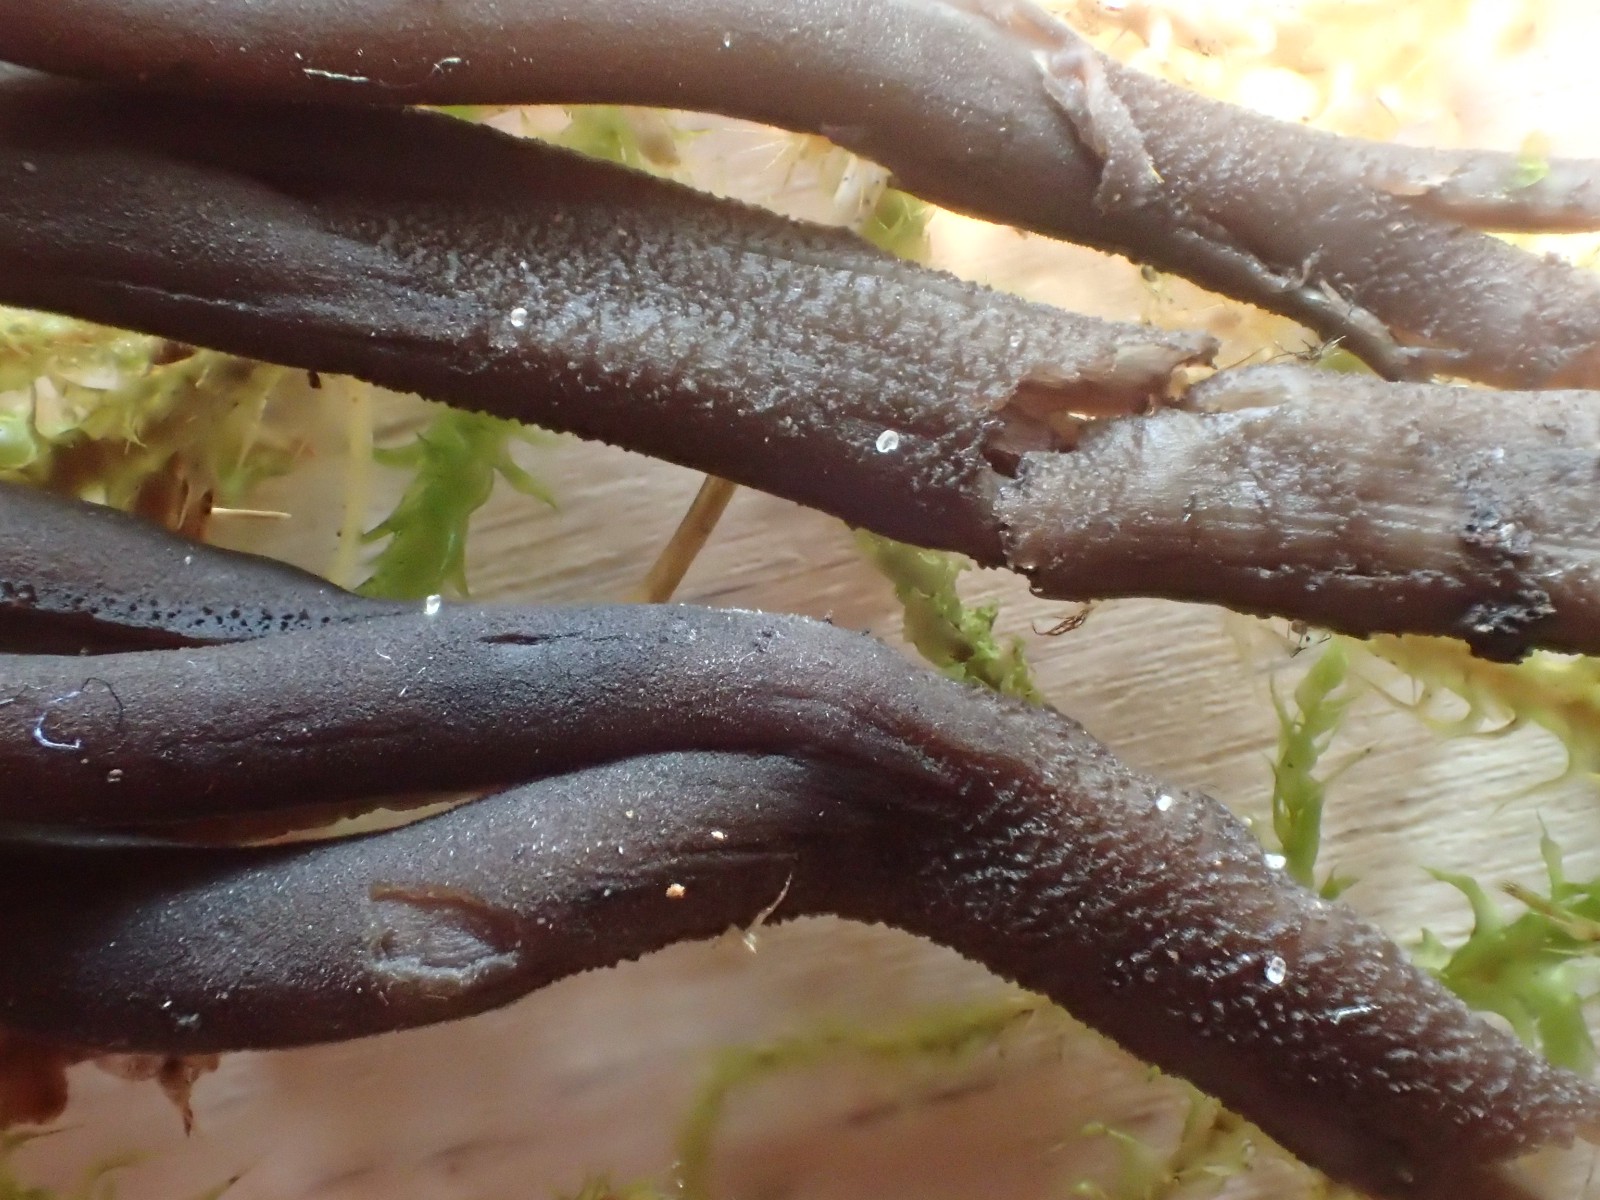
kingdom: Fungi
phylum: Ascomycota
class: Geoglossomycetes
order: Geoglossales
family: Geoglossaceae
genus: Hemileucoglossum
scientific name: Hemileucoglossum elongatum
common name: småsporet jordtunge
